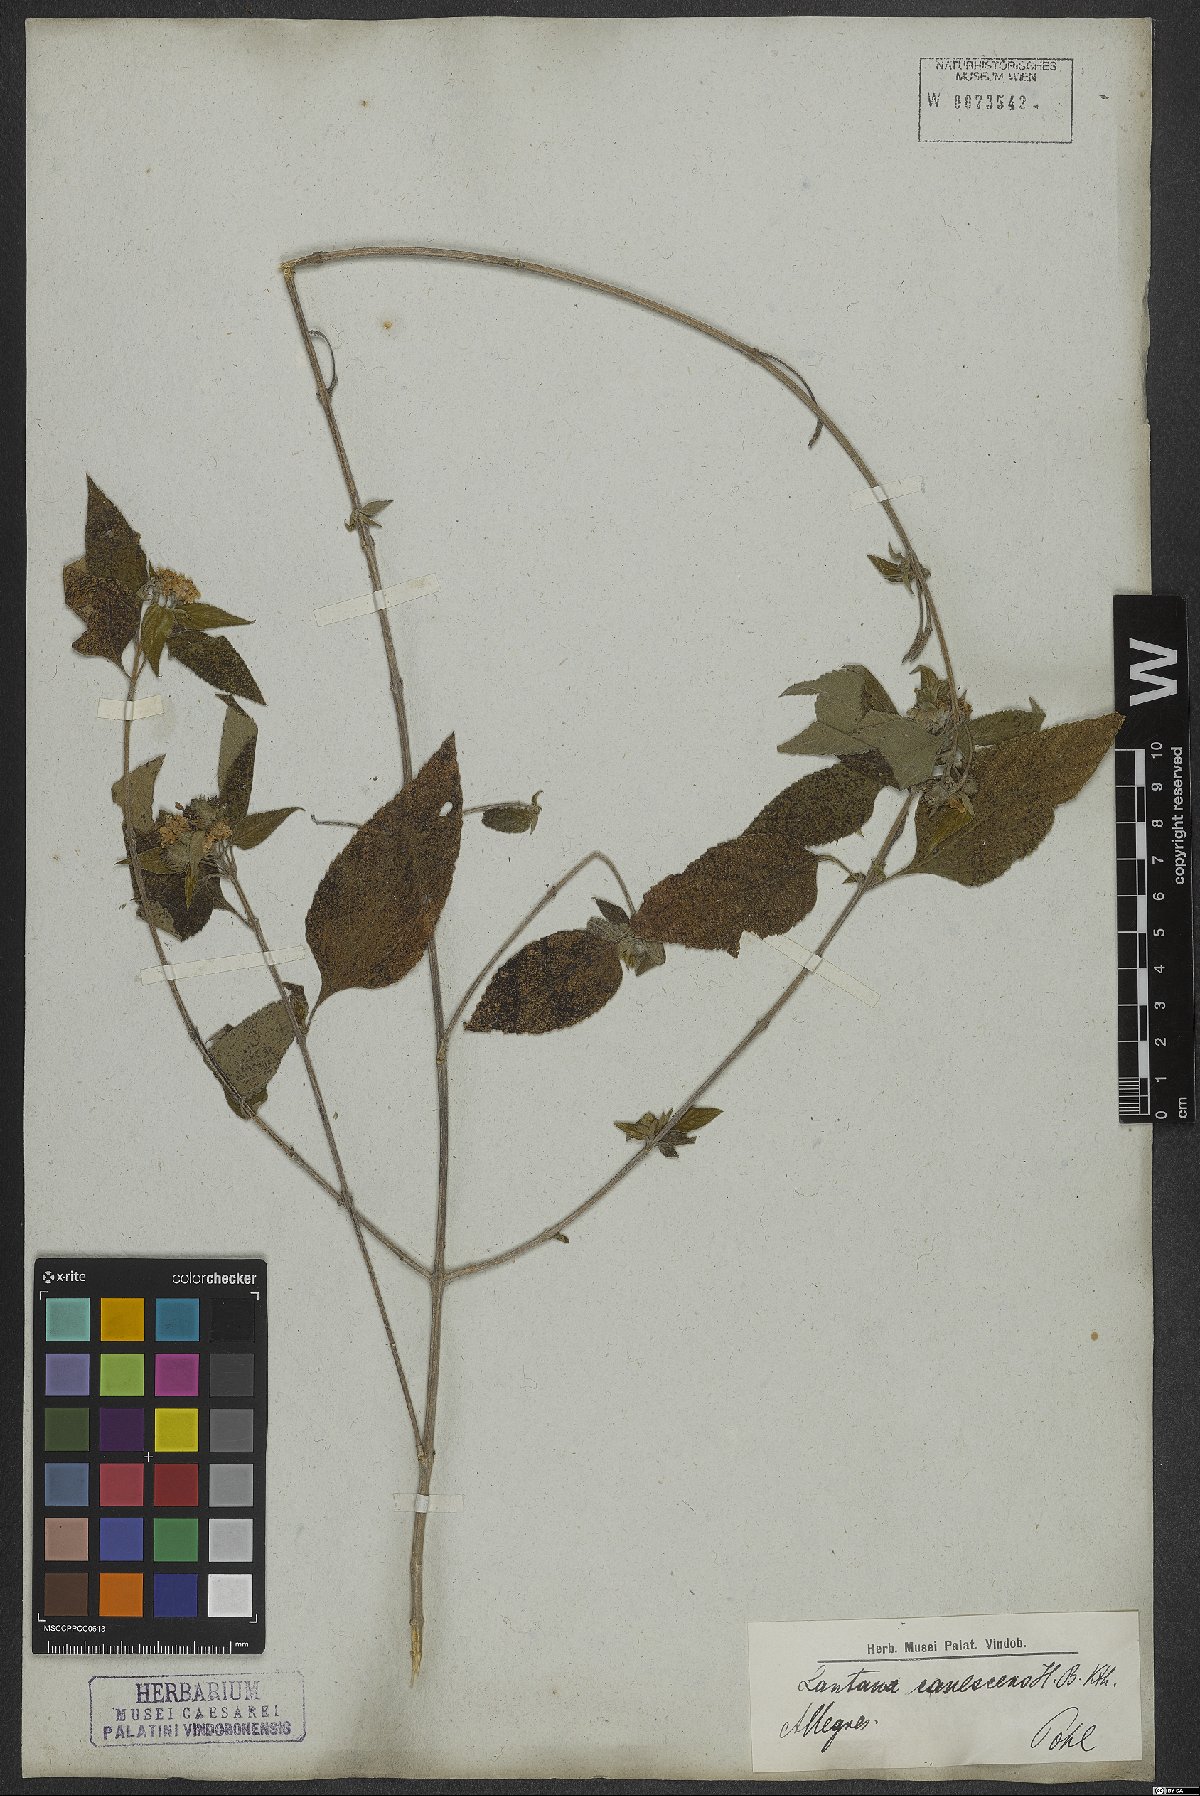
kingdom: Plantae
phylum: Tracheophyta
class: Magnoliopsida
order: Lamiales
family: Verbenaceae
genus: Lantana
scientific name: Lantana canescens
